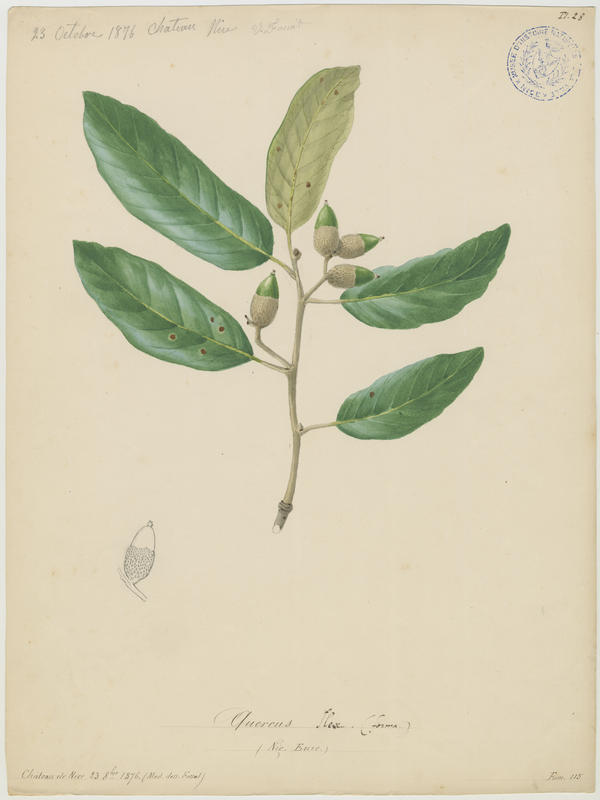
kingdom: Plantae
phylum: Tracheophyta
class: Magnoliopsida
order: Fagales
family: Fagaceae
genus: Quercus
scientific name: Quercus ilex
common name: Evergreen oak
